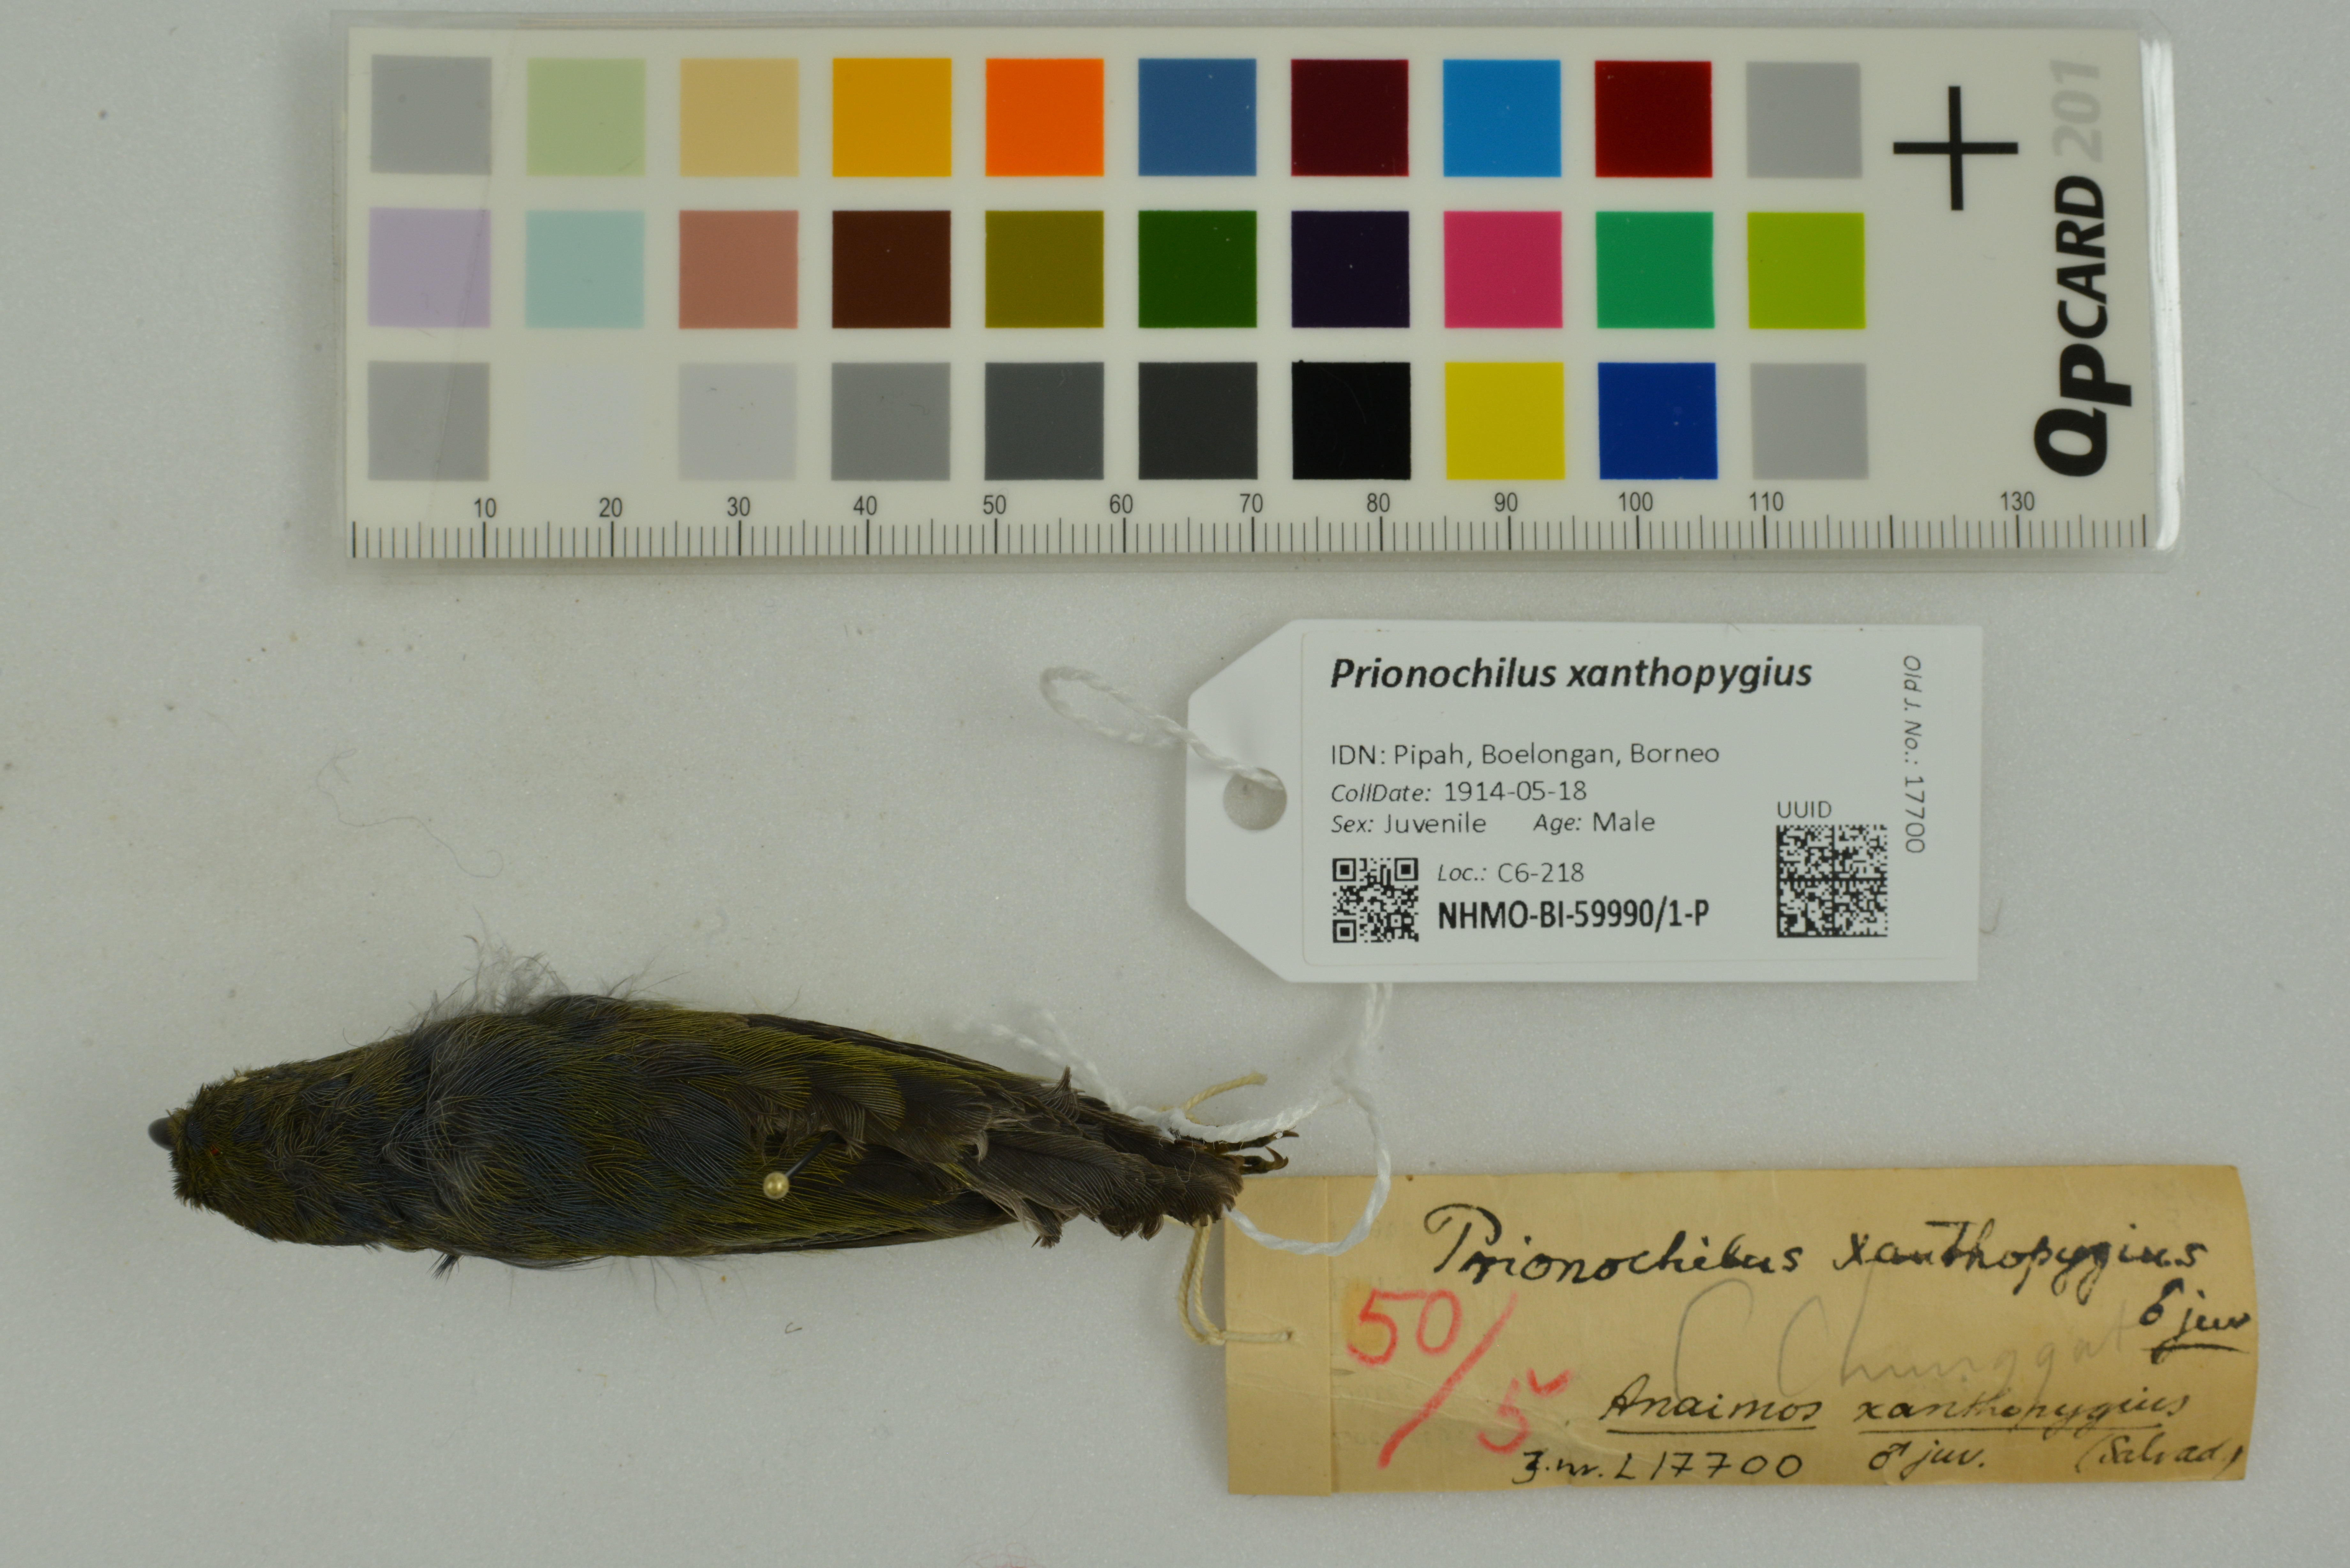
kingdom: Animalia
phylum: Chordata
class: Aves
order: Passeriformes
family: Dicaeidae
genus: Prionochilus
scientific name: Prionochilus xanthopygius
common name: Yellow-rumped flowerpecker
